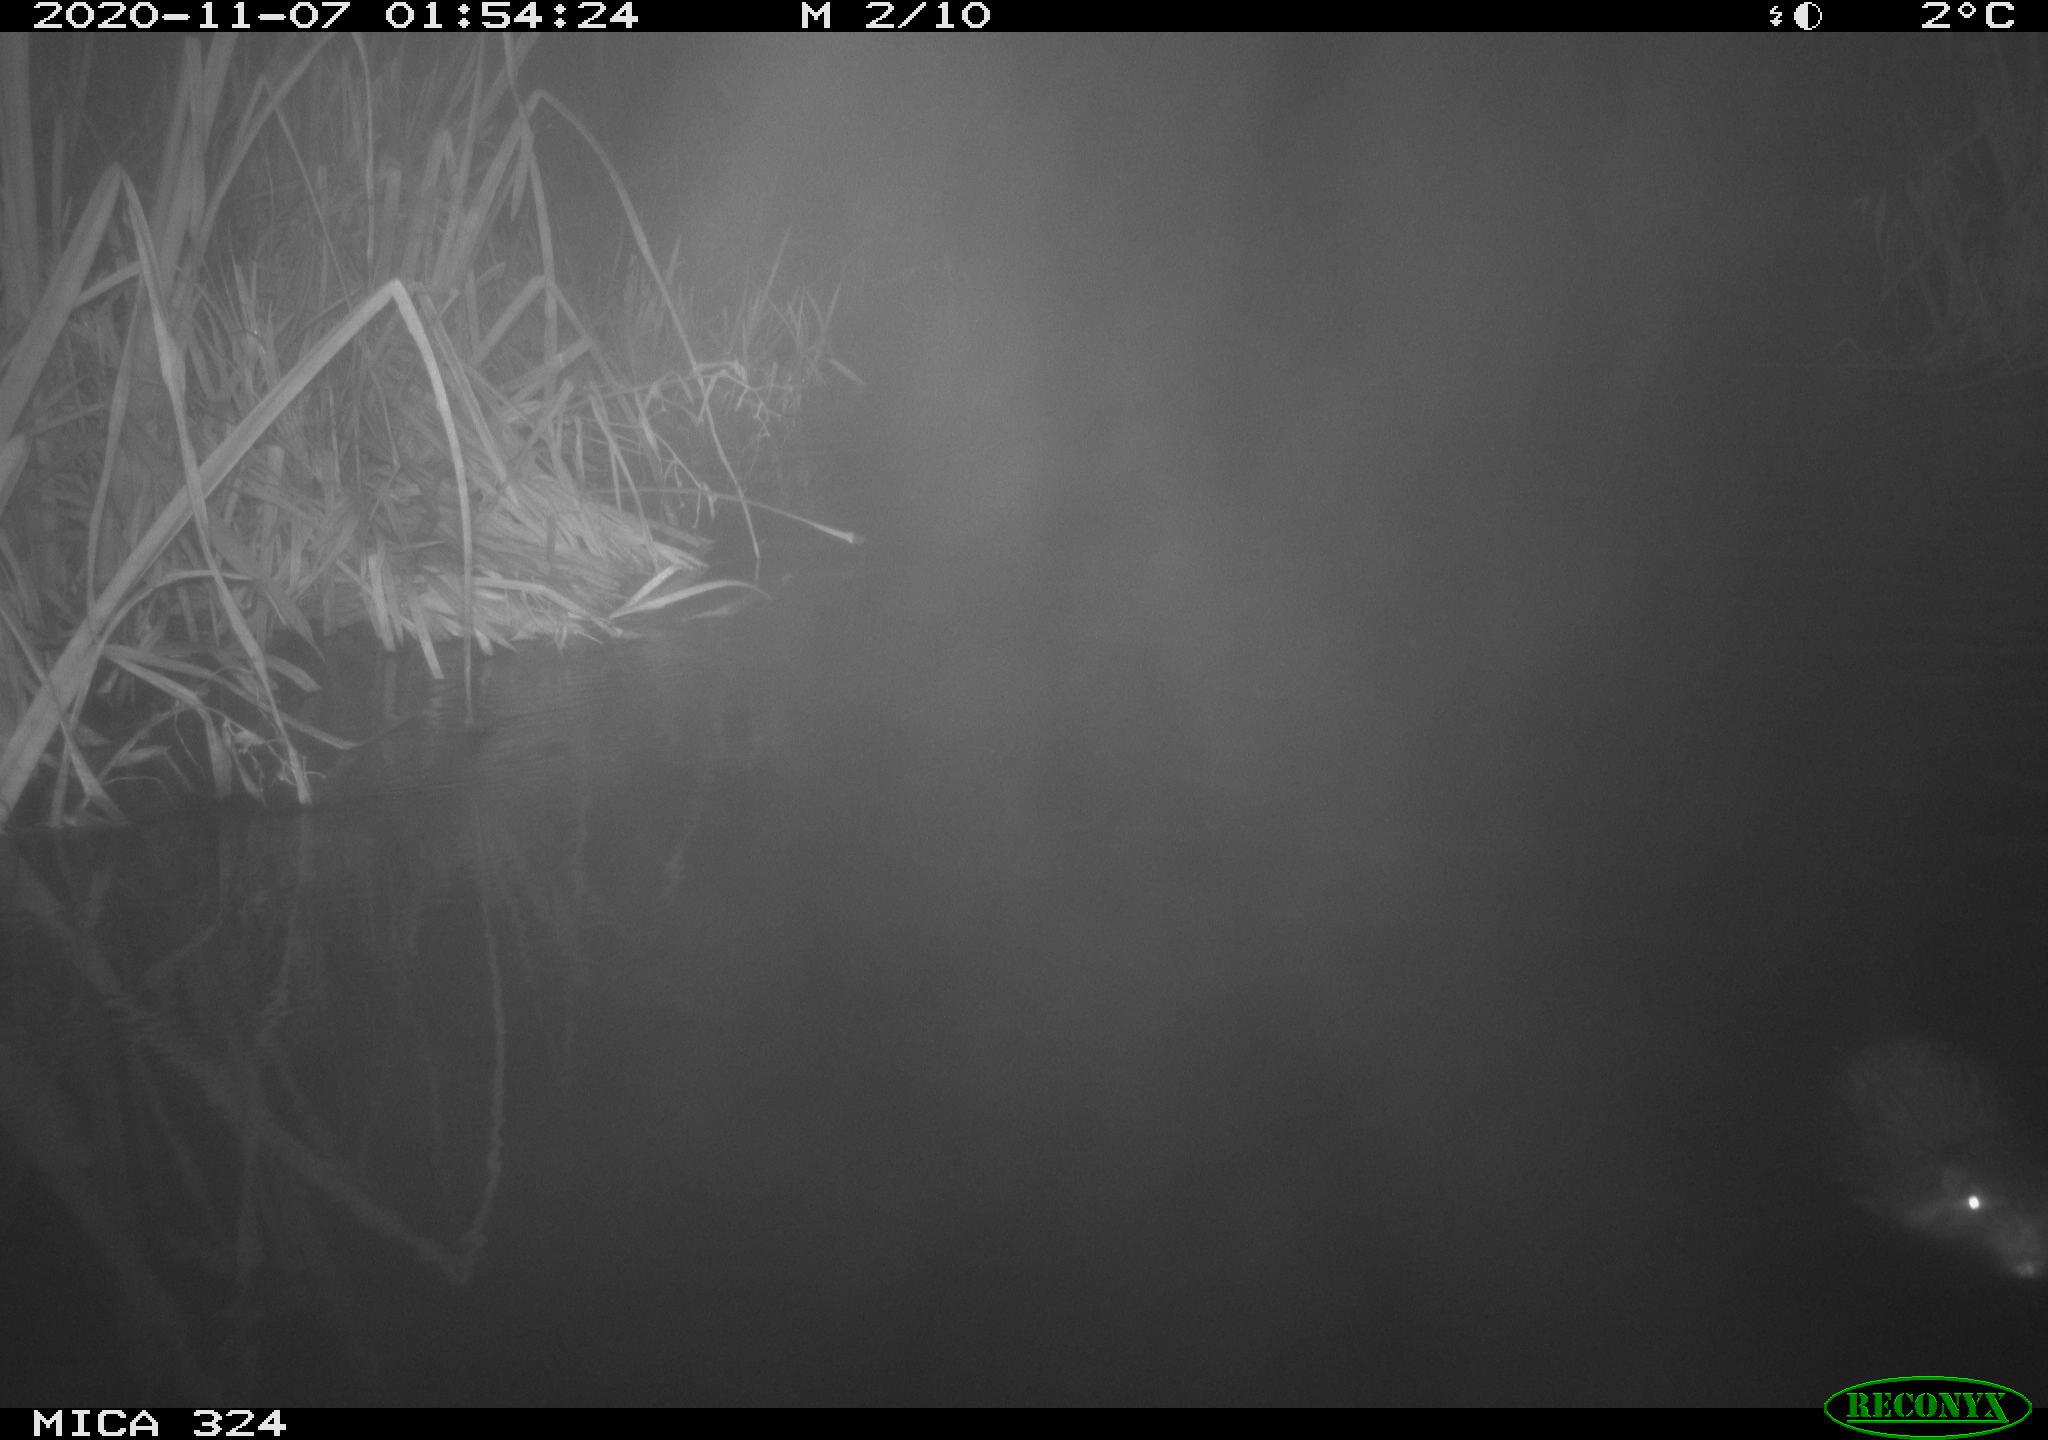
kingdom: Animalia
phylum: Chordata
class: Mammalia
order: Rodentia
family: Myocastoridae
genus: Myocastor
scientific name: Myocastor coypus
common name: Coypu
